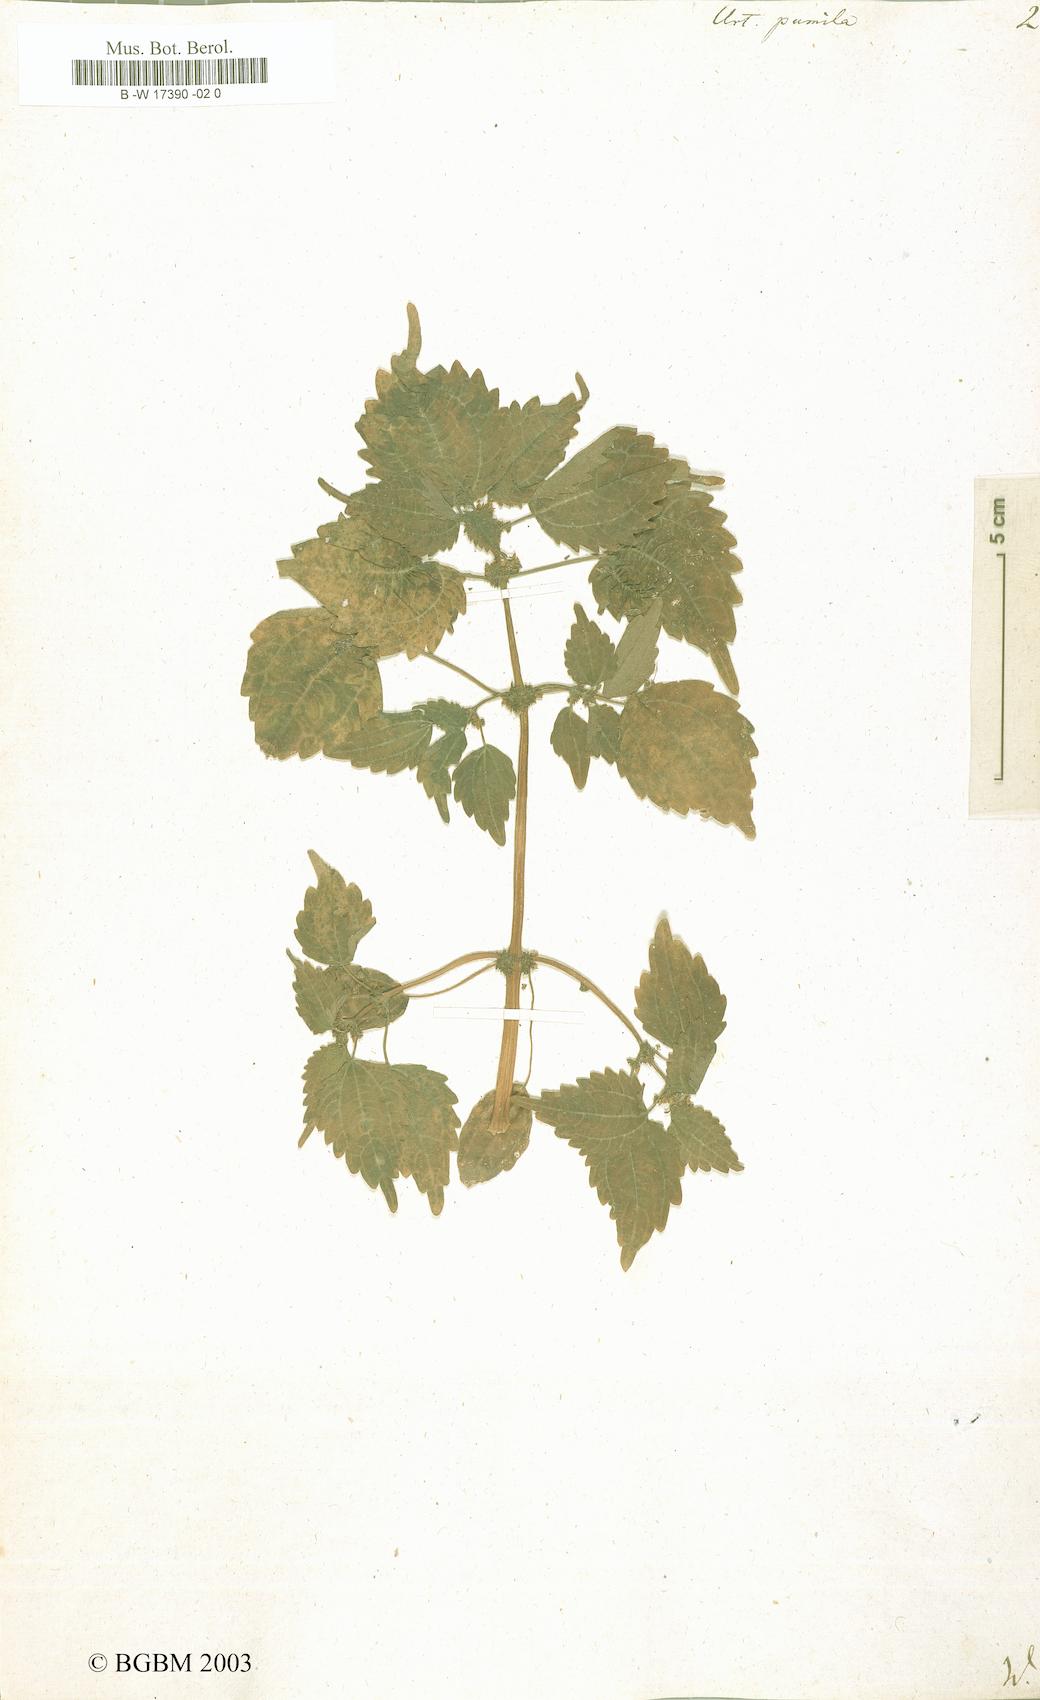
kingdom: Plantae
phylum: Tracheophyta
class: Magnoliopsida
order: Rosales
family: Urticaceae
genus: Urtica
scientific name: Urtica pumila
